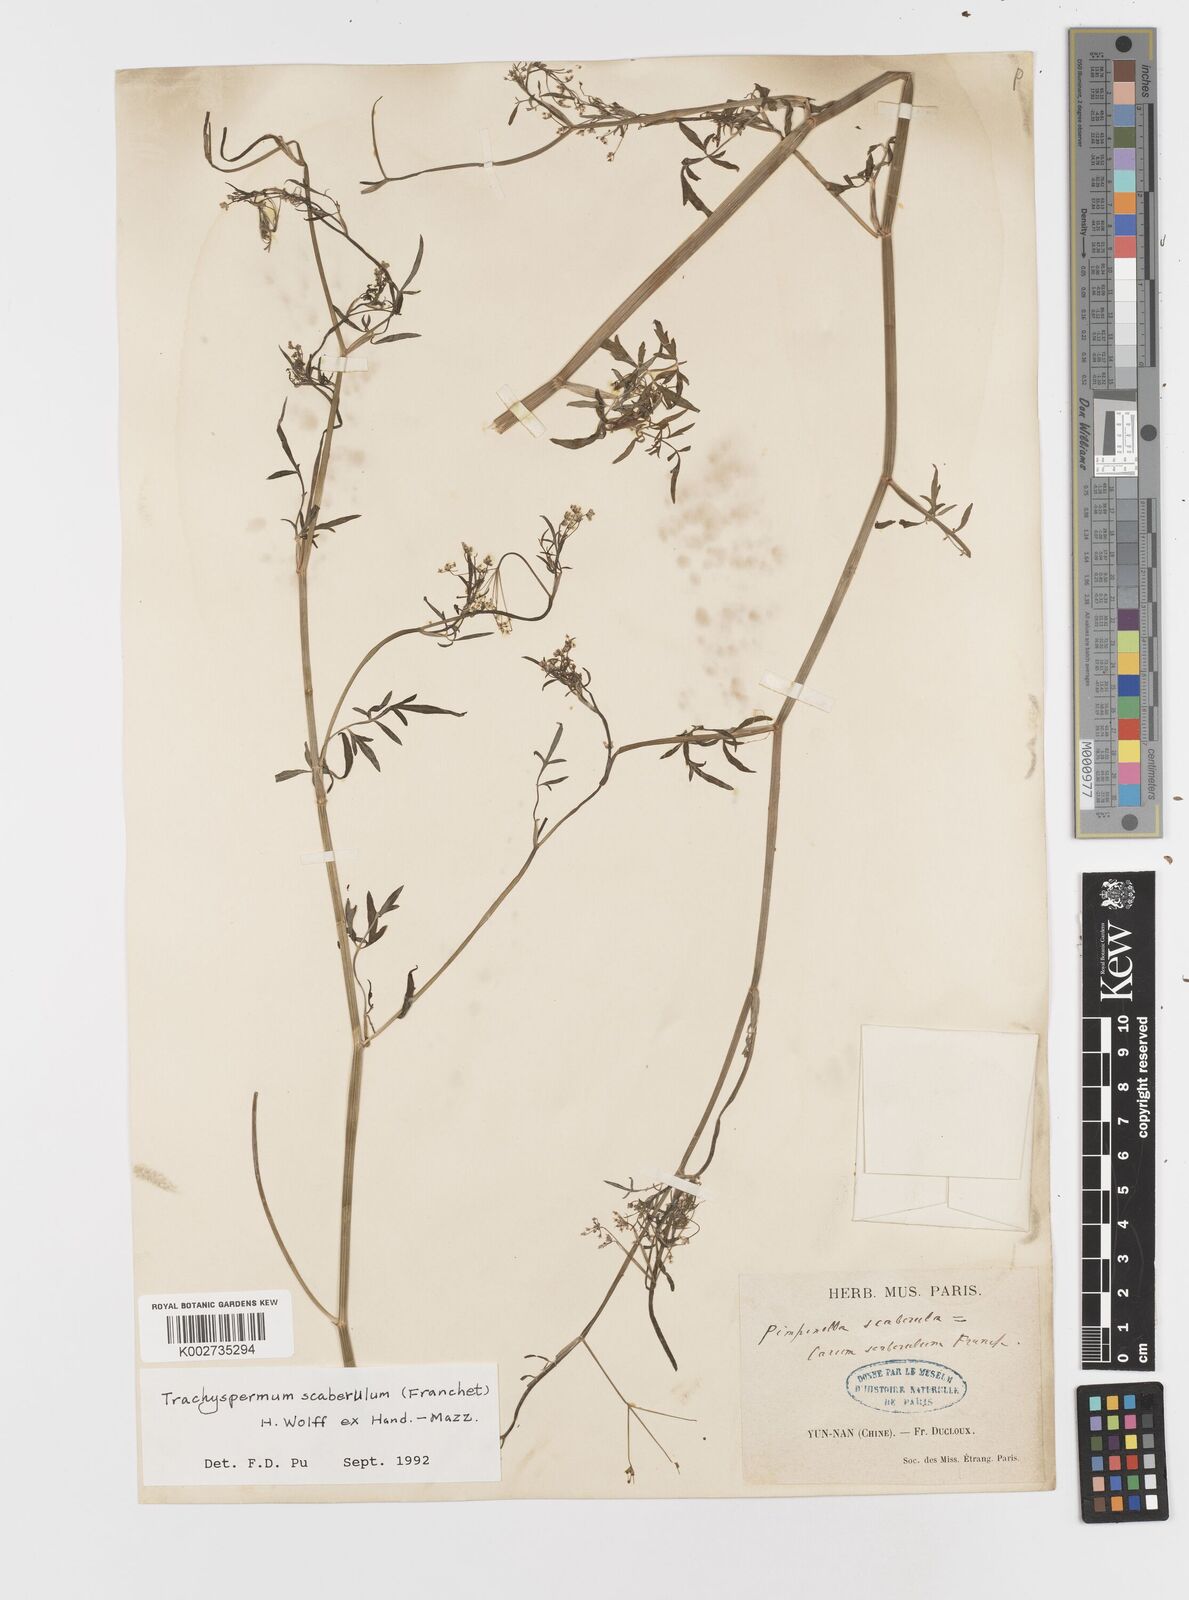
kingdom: Plantae
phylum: Tracheophyta
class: Magnoliopsida
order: Apiales
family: Apiaceae
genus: Pimpinella
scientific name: Pimpinella scaberula
